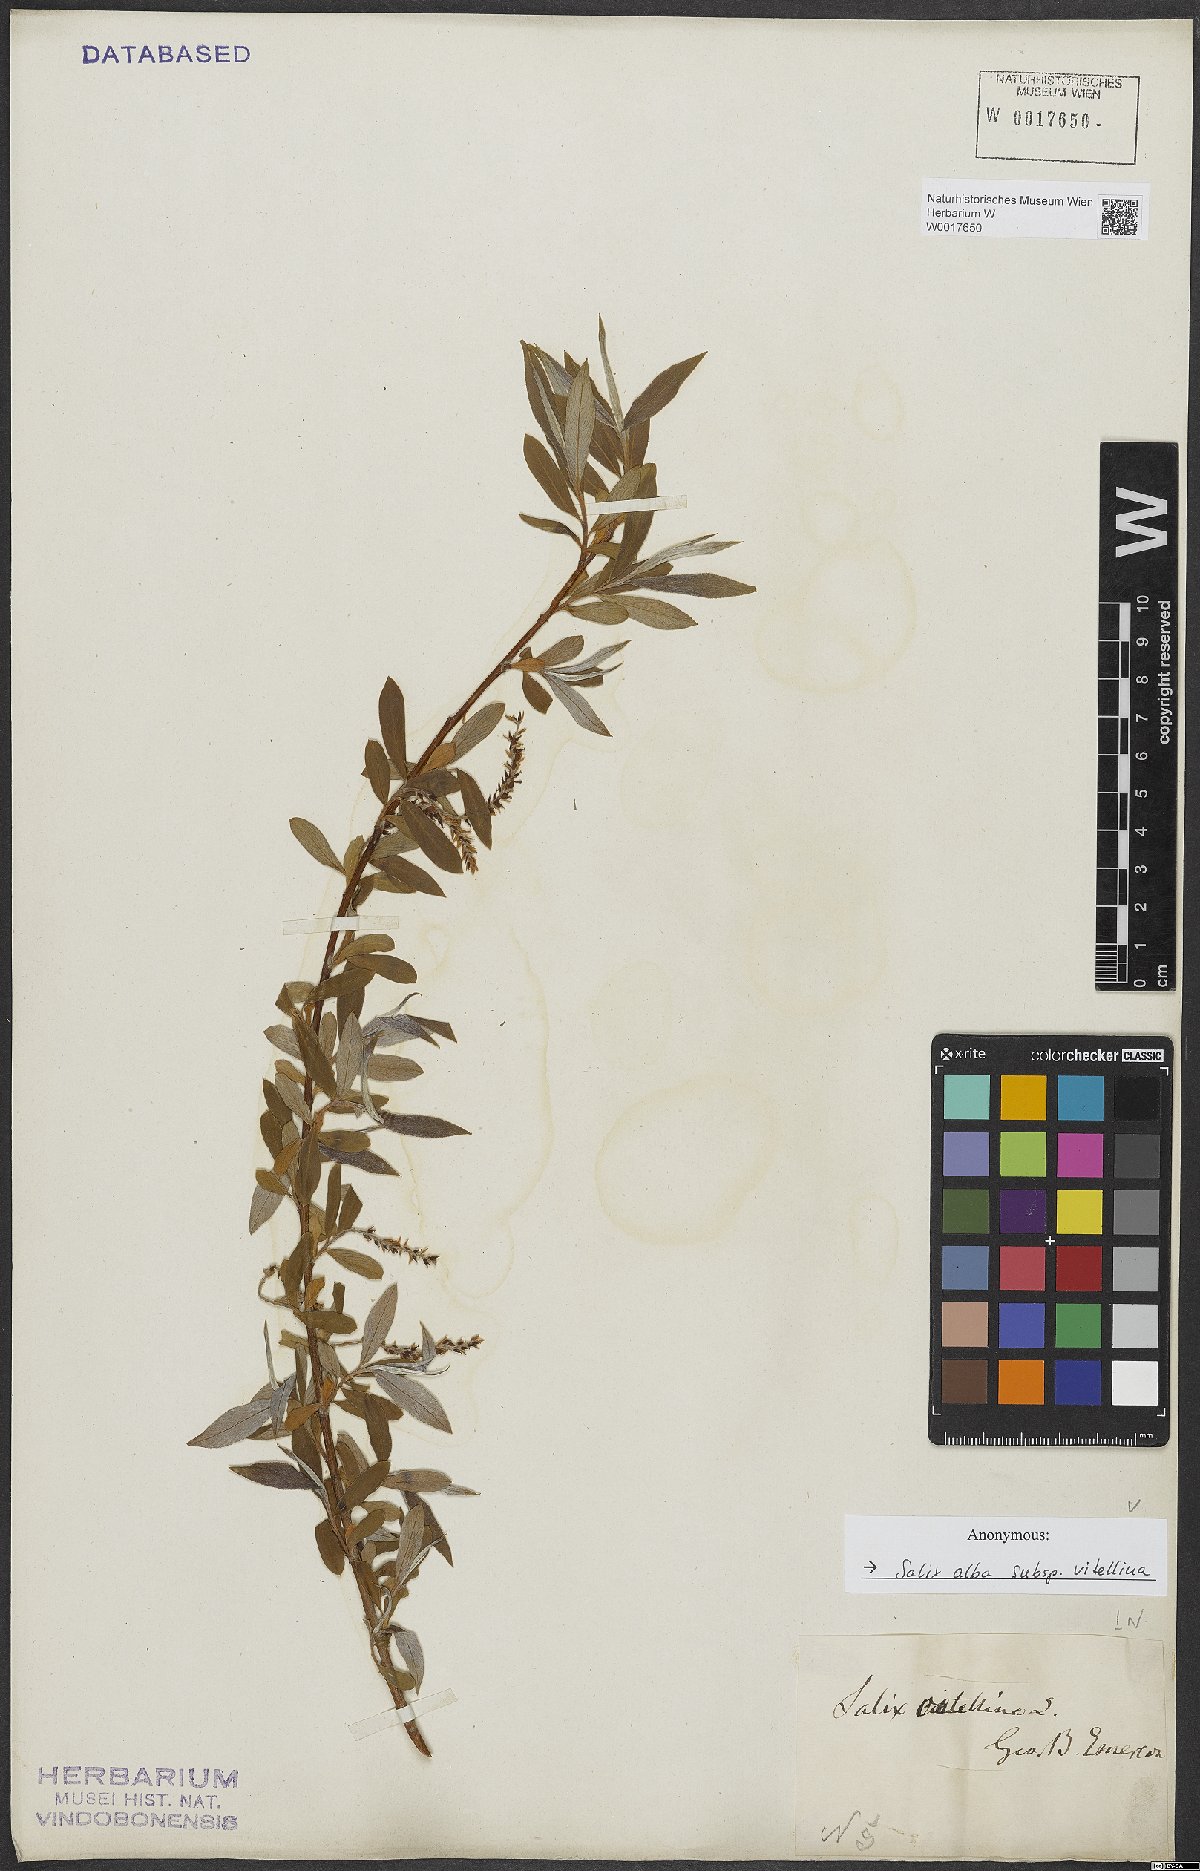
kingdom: Plantae
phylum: Tracheophyta
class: Magnoliopsida
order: Malpighiales
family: Salicaceae
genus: Salix
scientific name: Salix alba
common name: White willow
